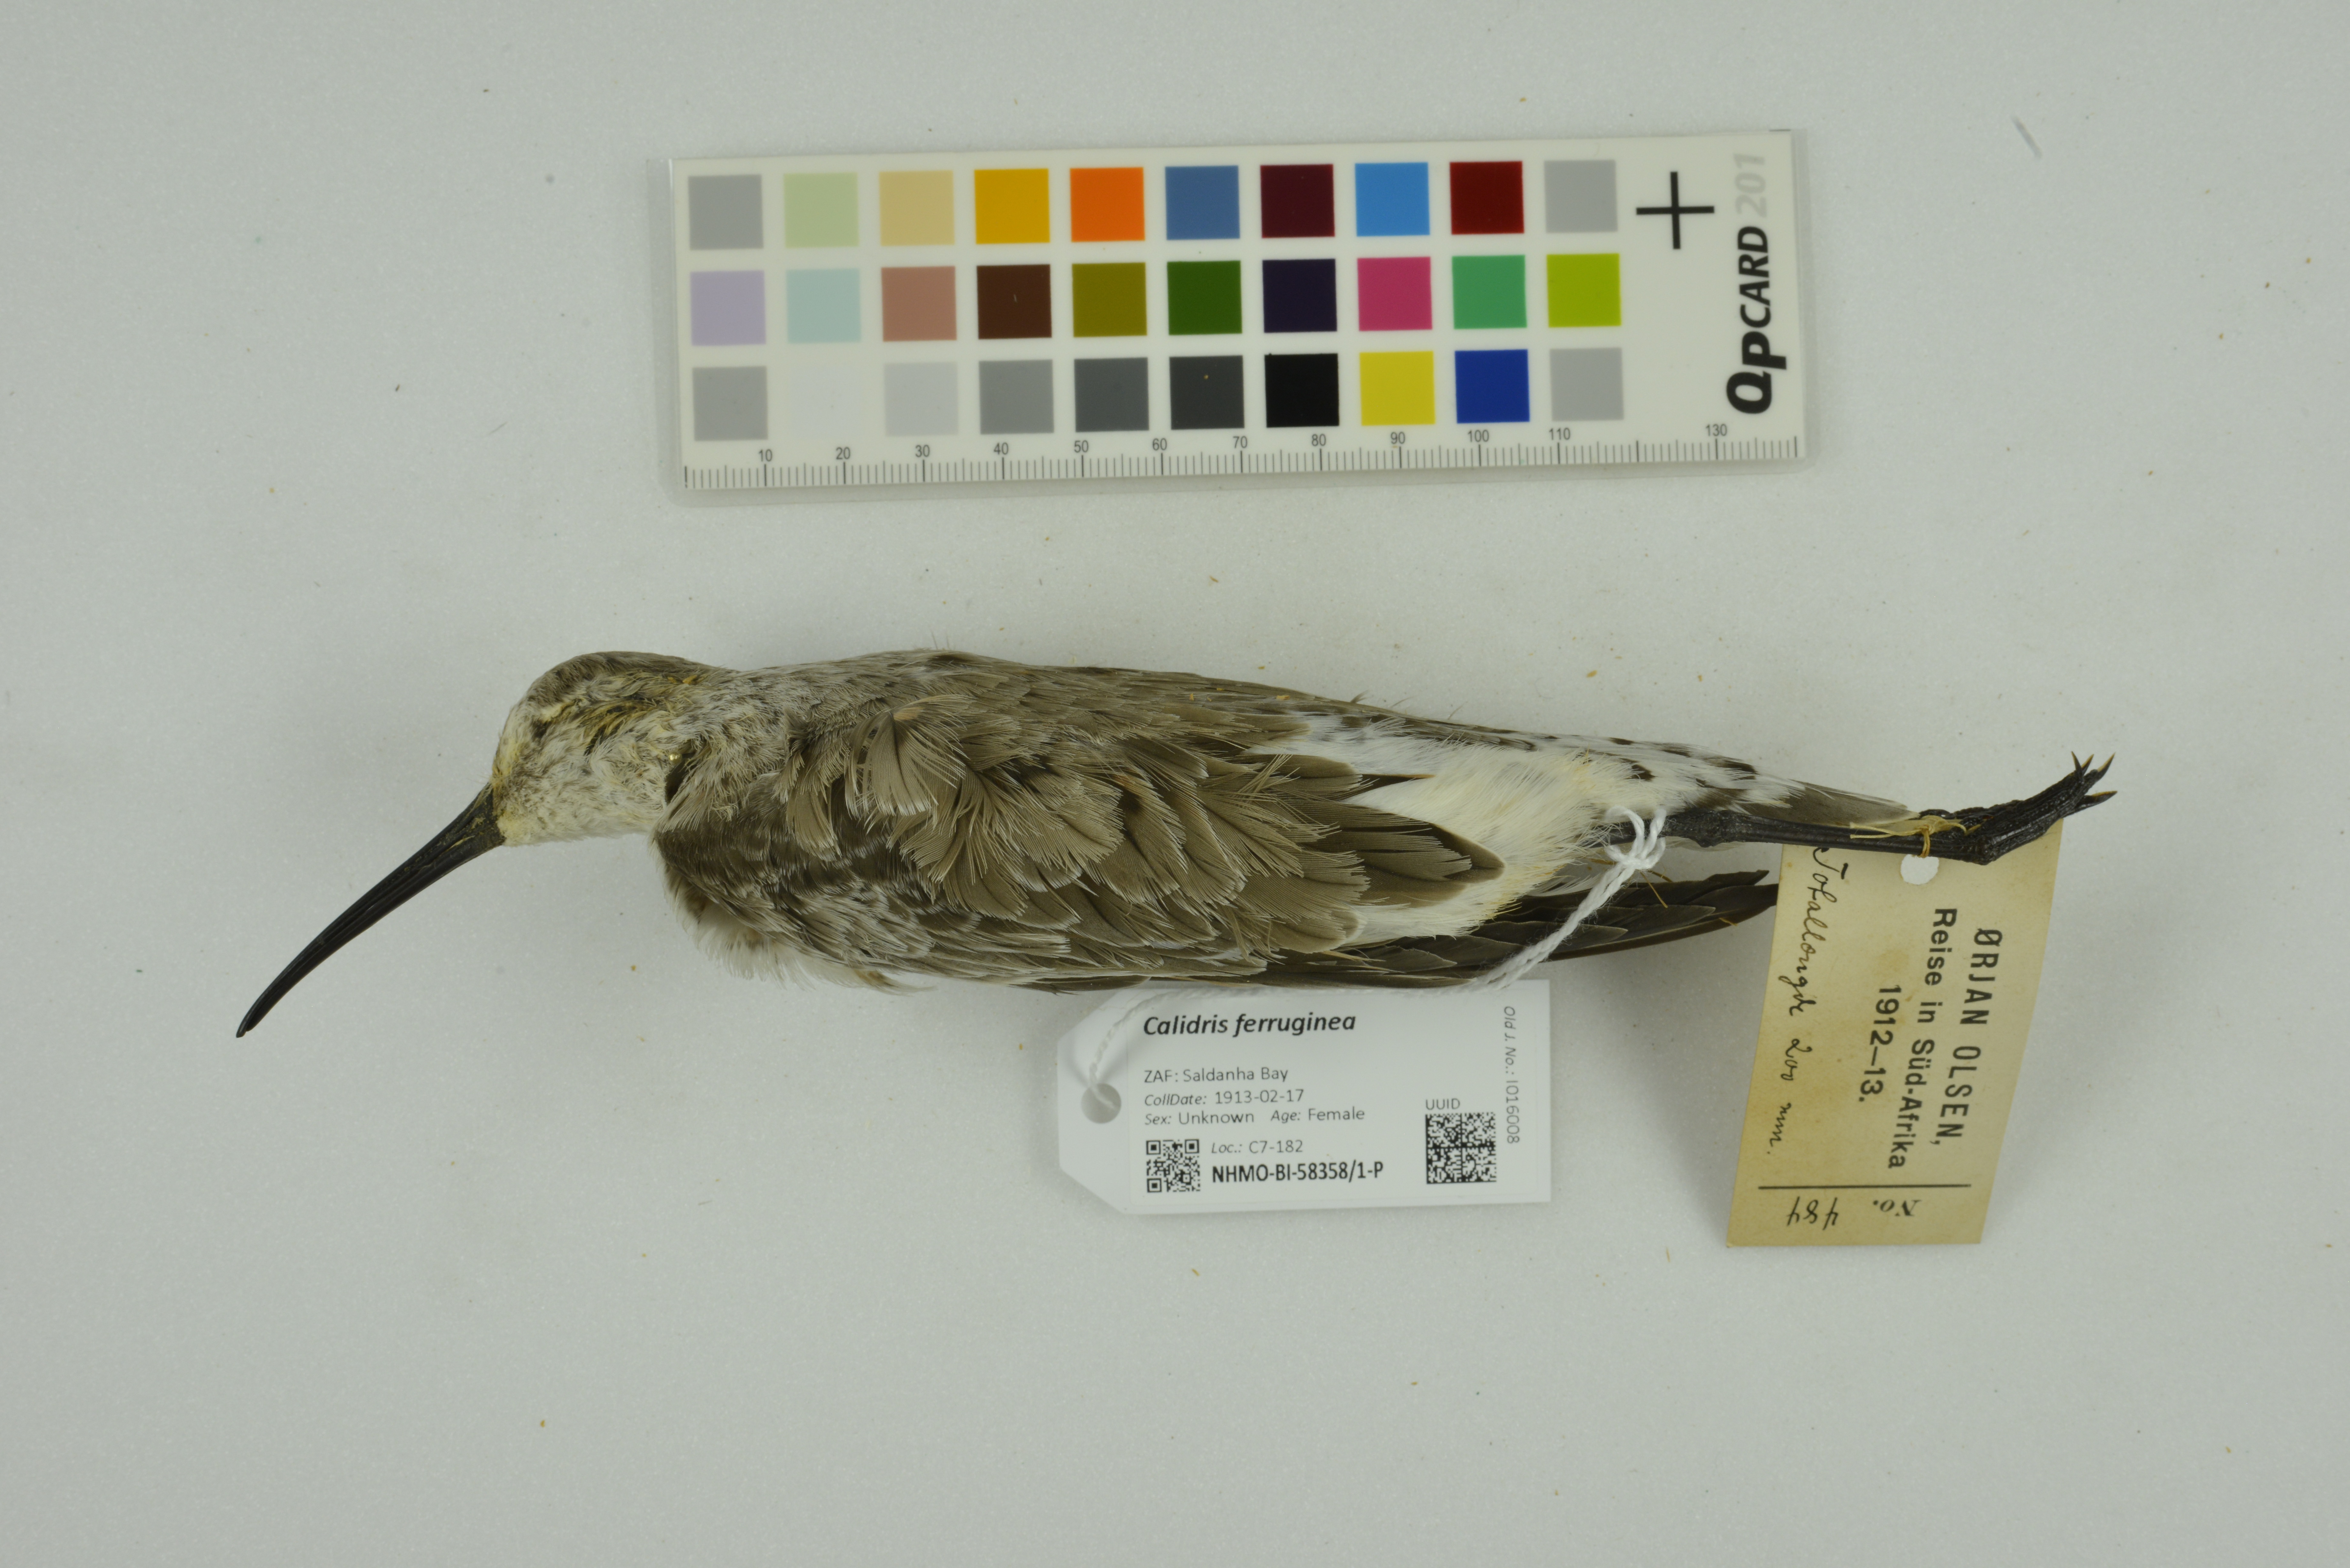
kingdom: Animalia
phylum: Chordata
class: Aves
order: Charadriiformes
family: Scolopacidae
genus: Calidris
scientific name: Calidris ferruginea
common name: Curlew sandpiper
